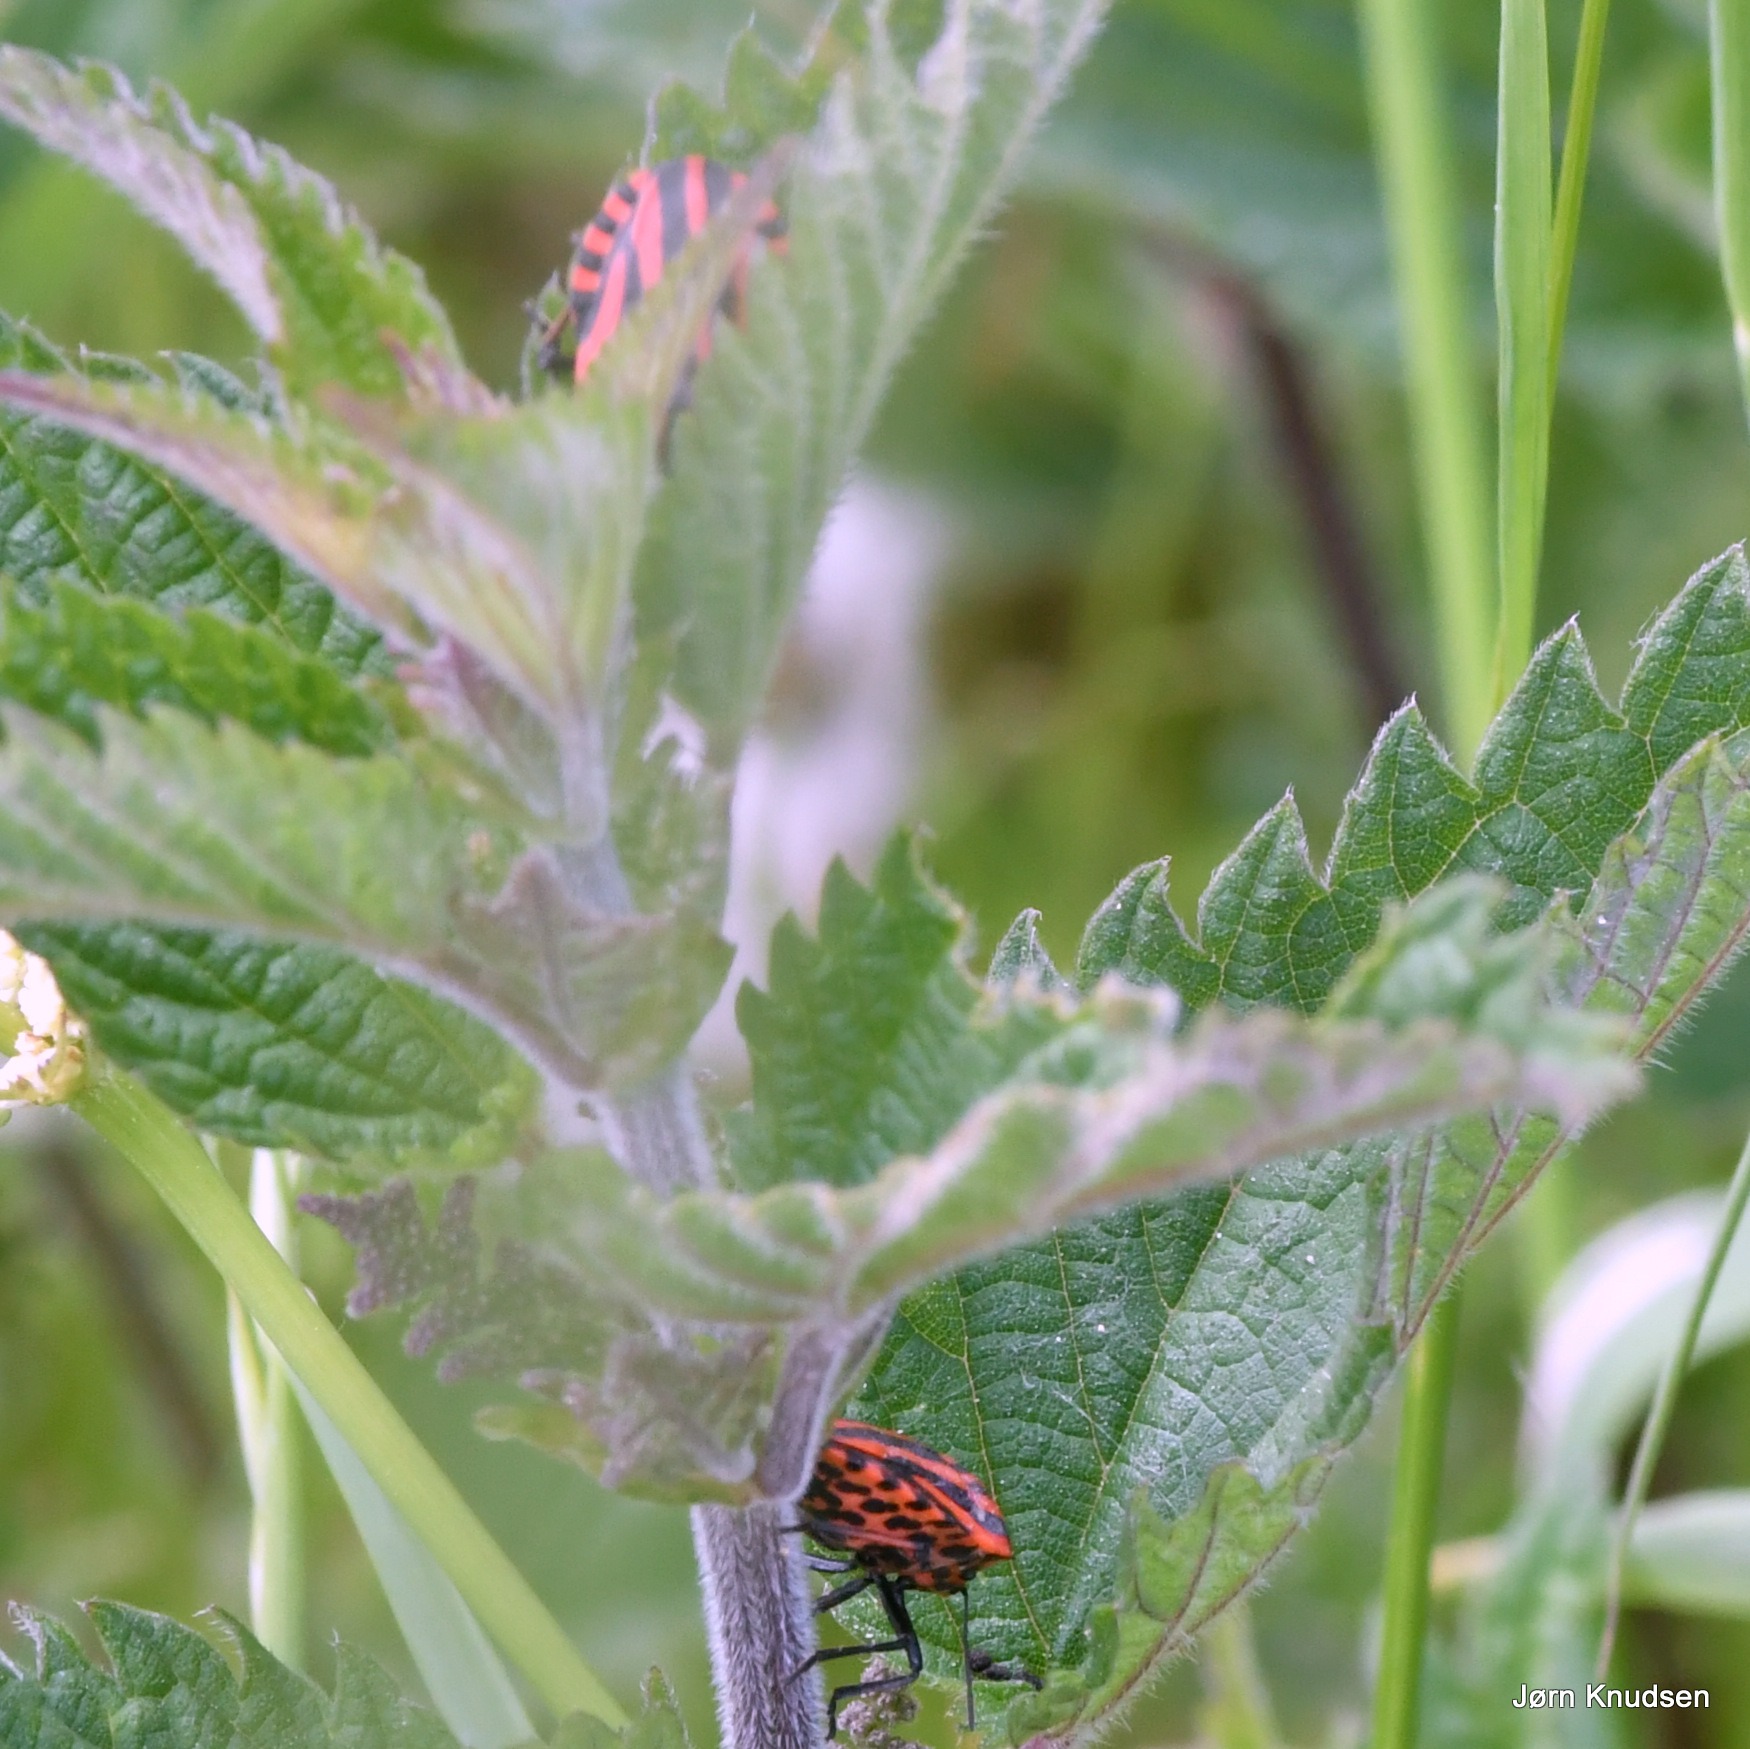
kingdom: Animalia
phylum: Arthropoda
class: Insecta
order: Hemiptera
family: Pentatomidae
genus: Graphosoma
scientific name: Graphosoma italicum
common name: Stribetæge
